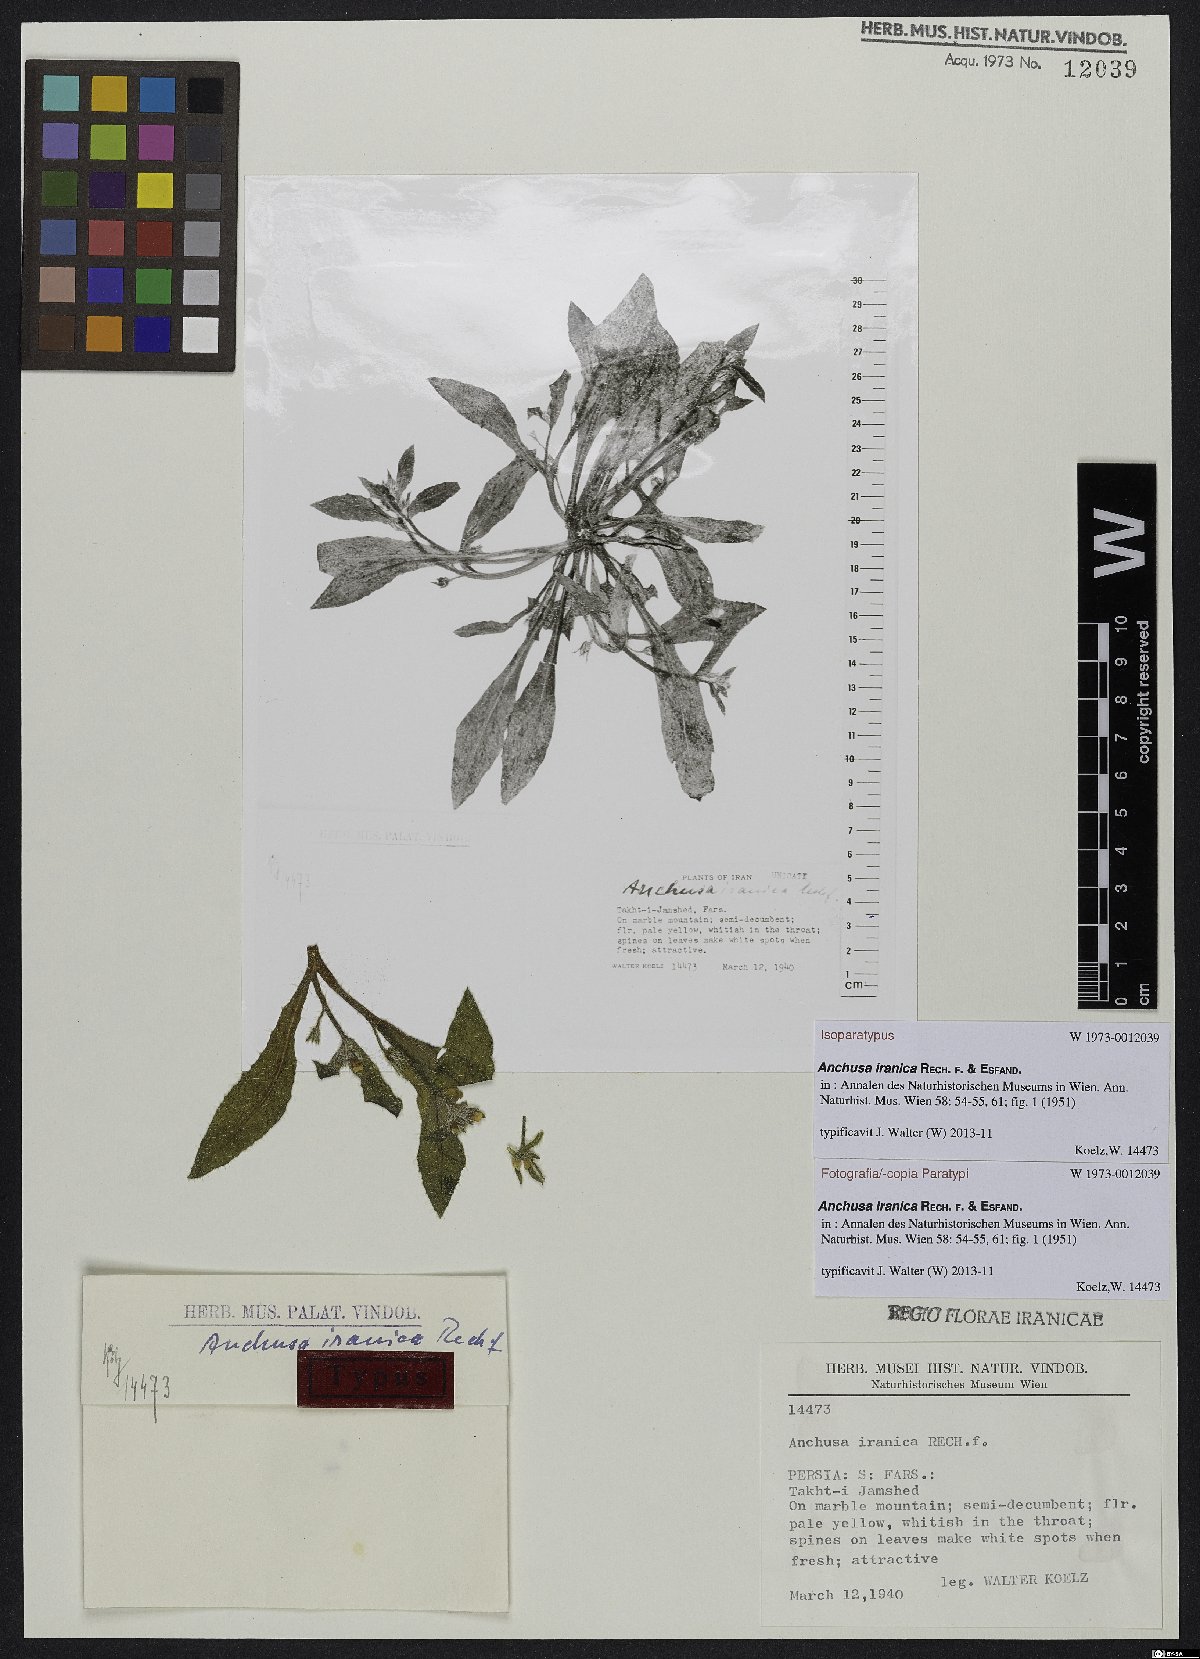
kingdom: Plantae
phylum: Tracheophyta
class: Magnoliopsida
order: Boraginales
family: Boraginaceae
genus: Anchusa
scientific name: Anchusa iranica
